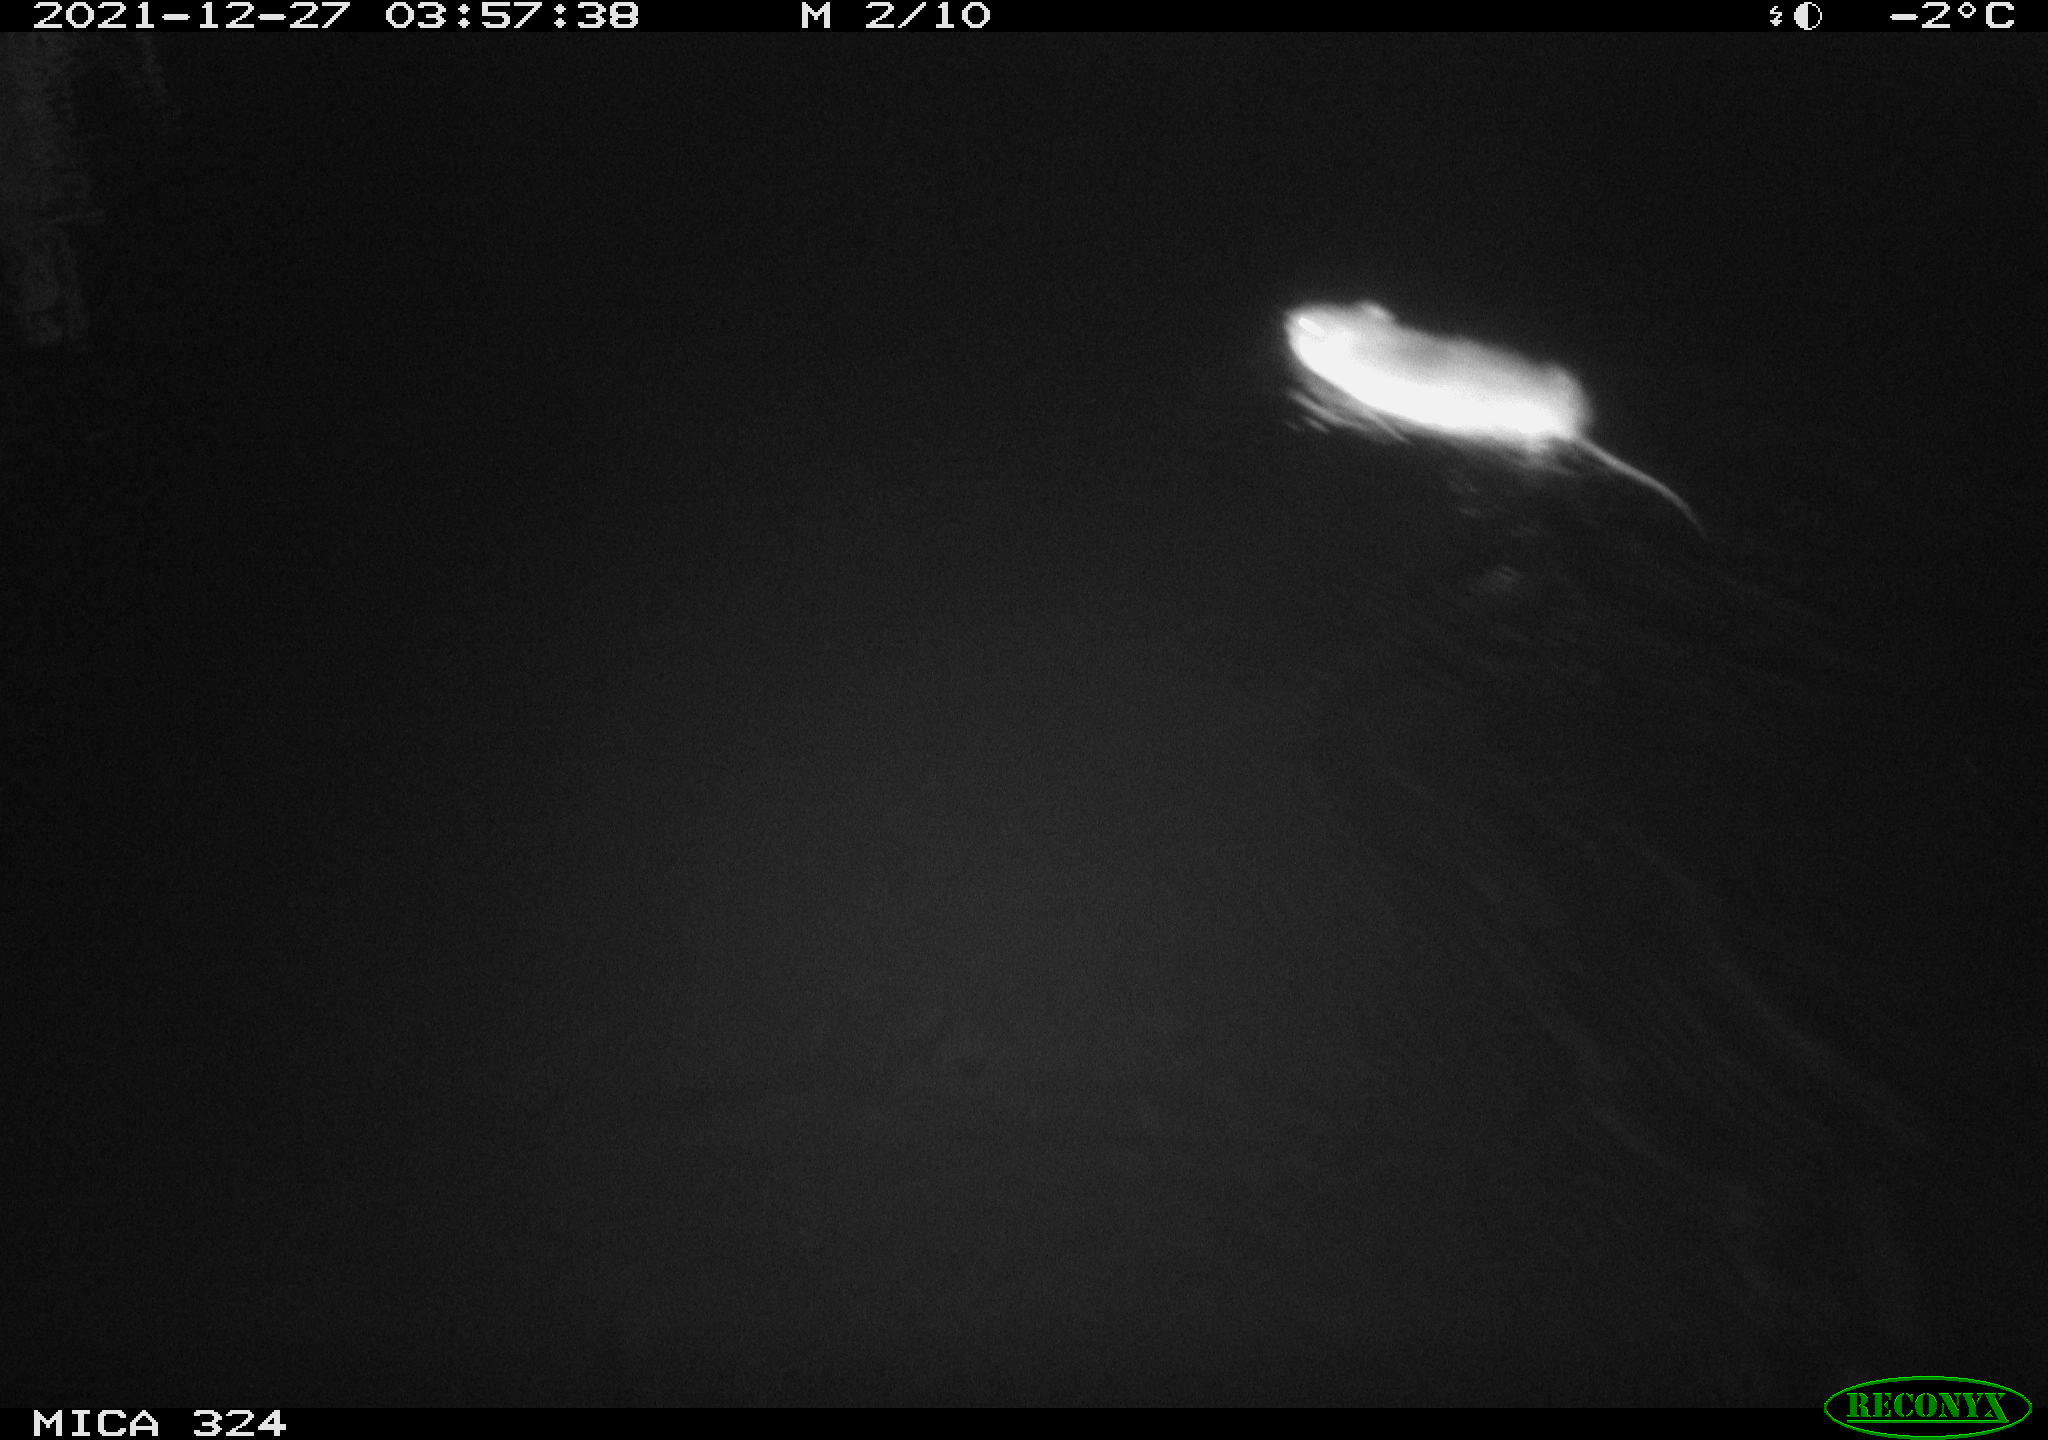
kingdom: Animalia
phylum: Chordata
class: Mammalia
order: Rodentia
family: Cricetidae
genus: Ondatra
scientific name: Ondatra zibethicus
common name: Muskrat
